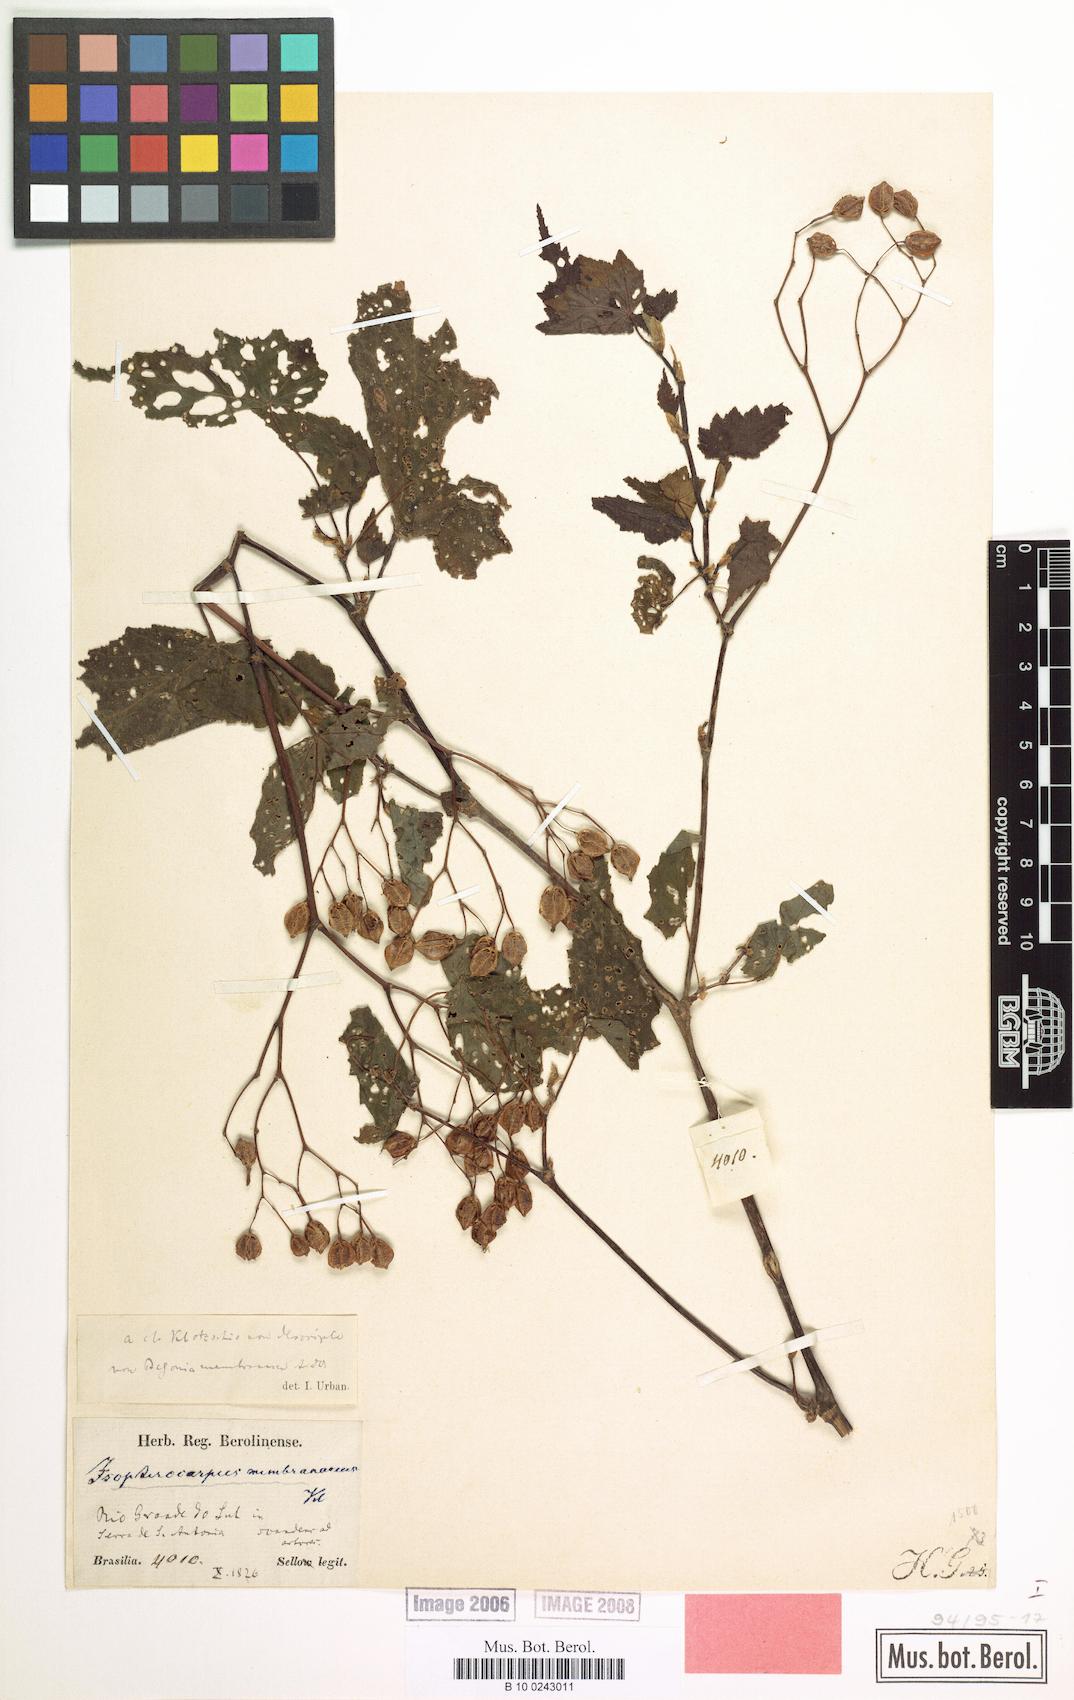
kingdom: Plantae
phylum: Tracheophyta
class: Magnoliopsida
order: Cucurbitales
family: Begoniaceae
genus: Begonia
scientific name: Begonia isopterocarpa
